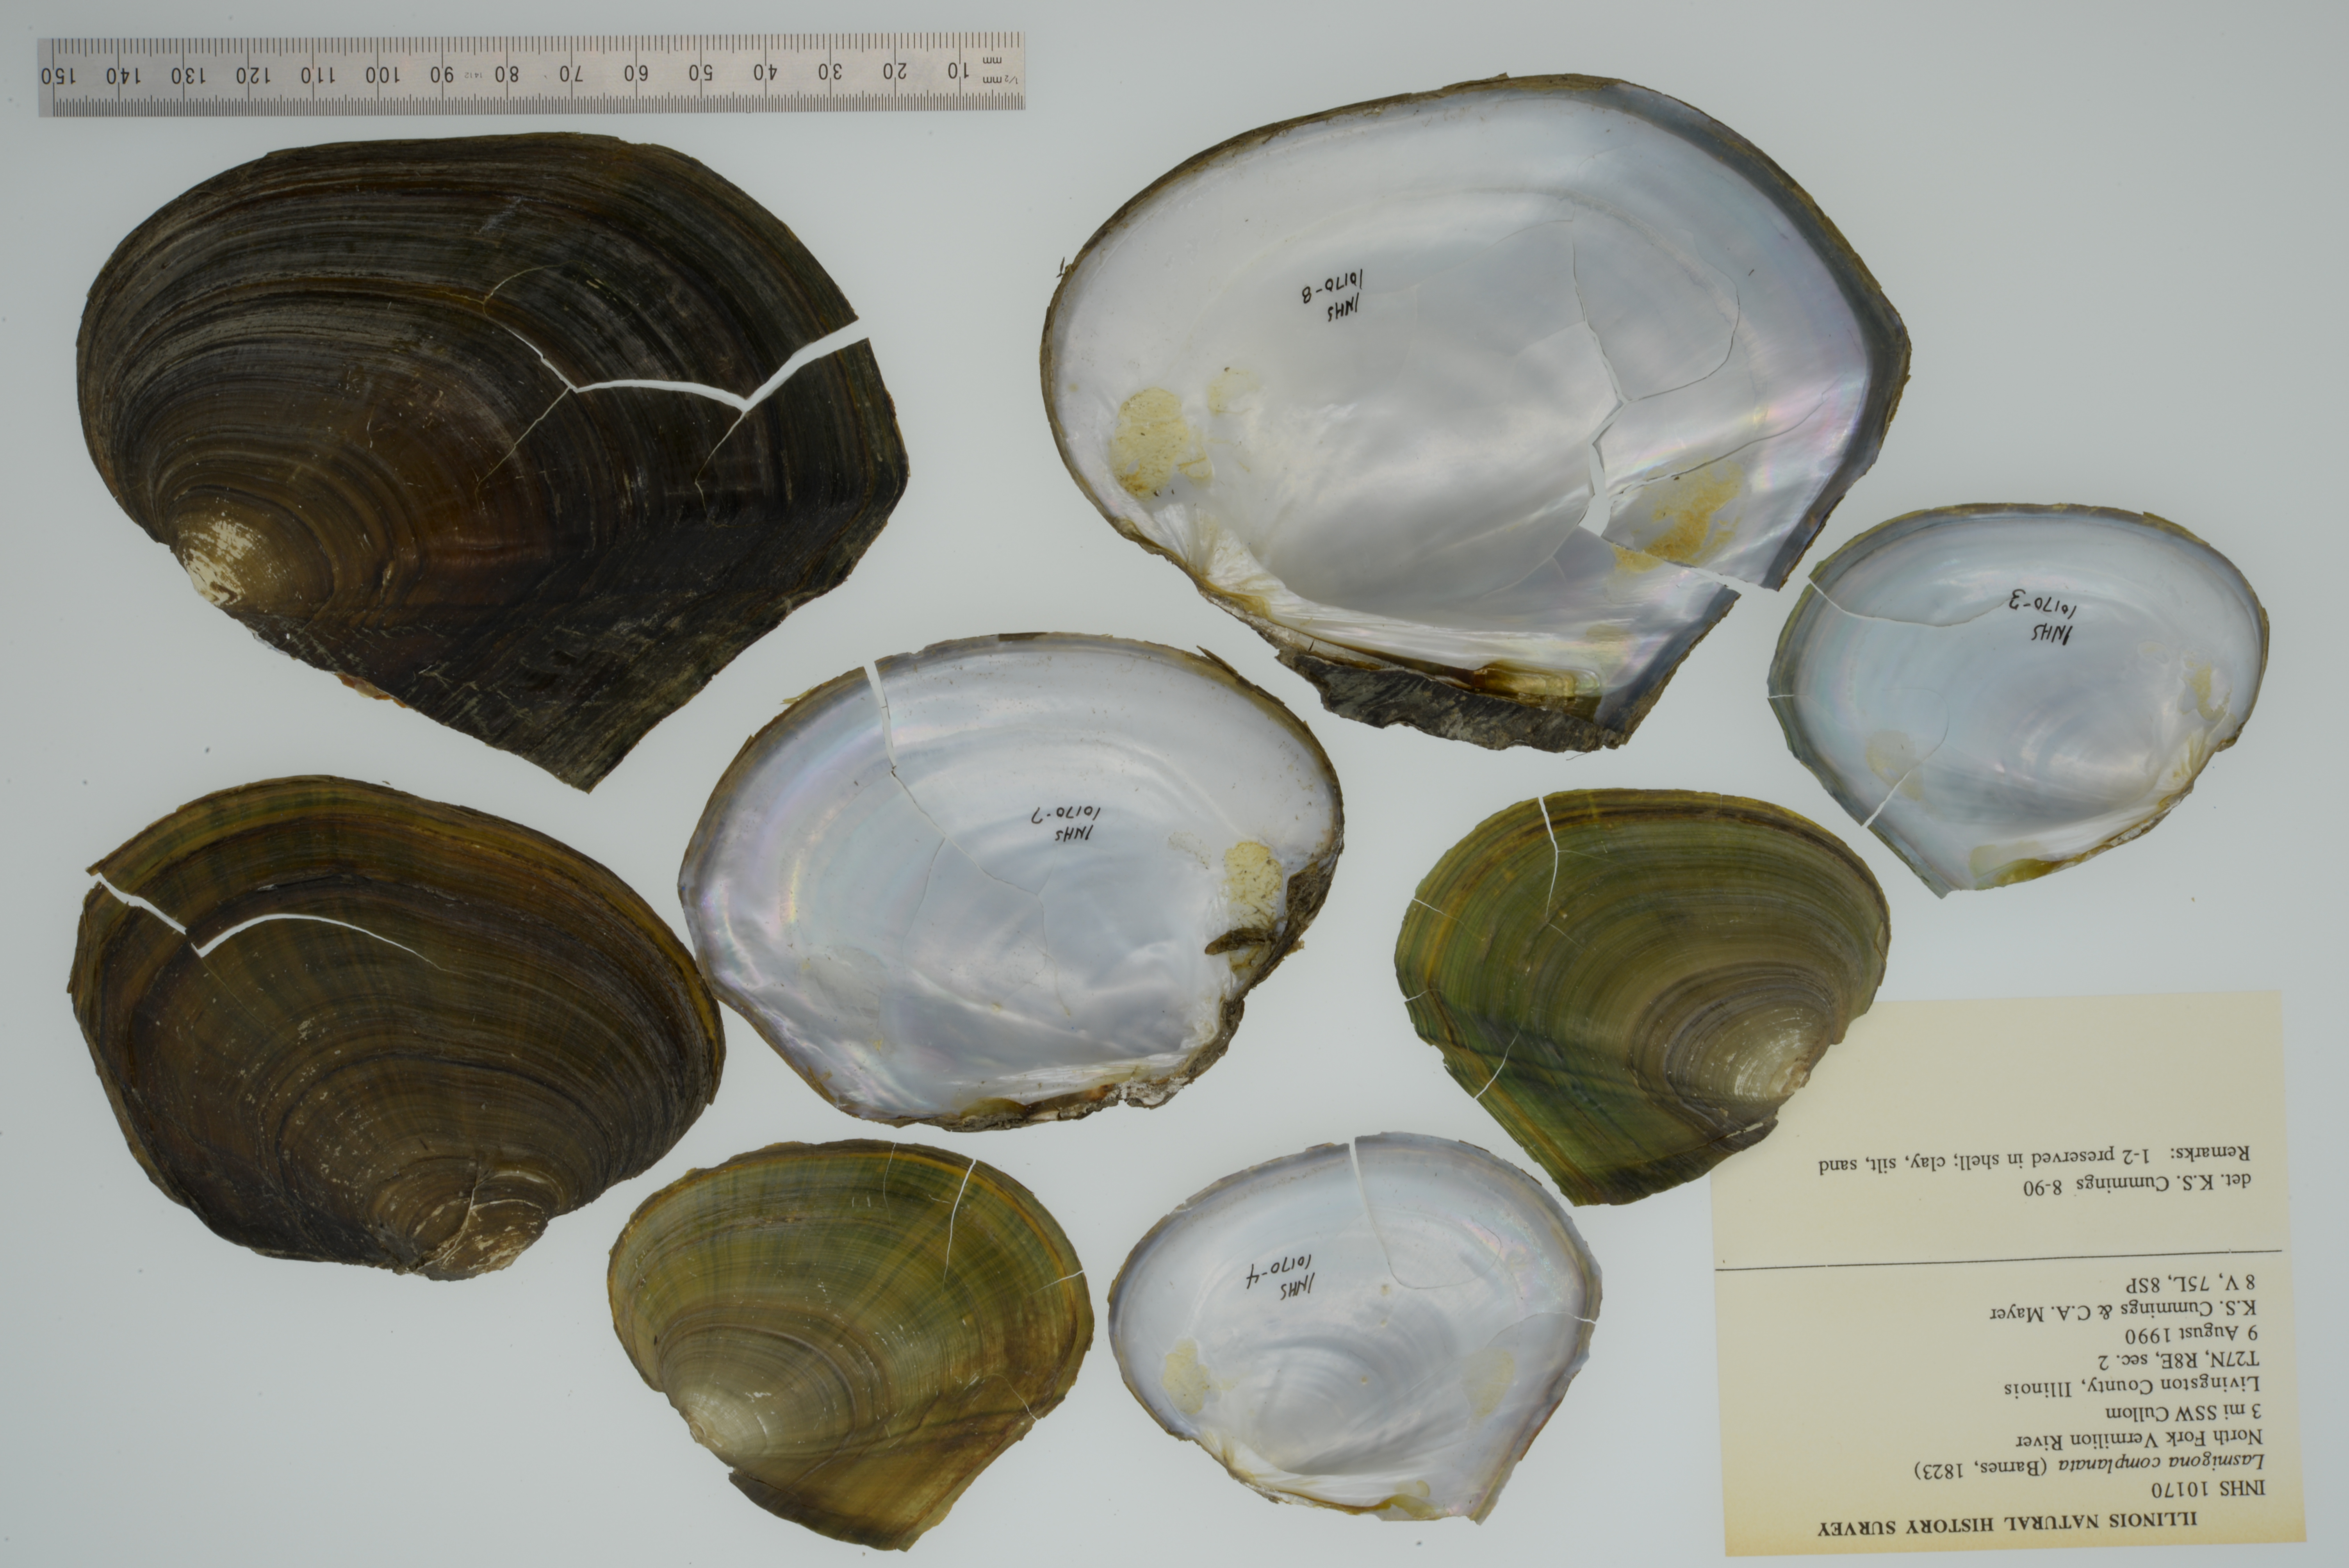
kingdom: Animalia
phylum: Mollusca
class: Bivalvia
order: Unionida
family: Unionidae
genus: Lasmigona
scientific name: Lasmigona complanata
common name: White heelsplitter
